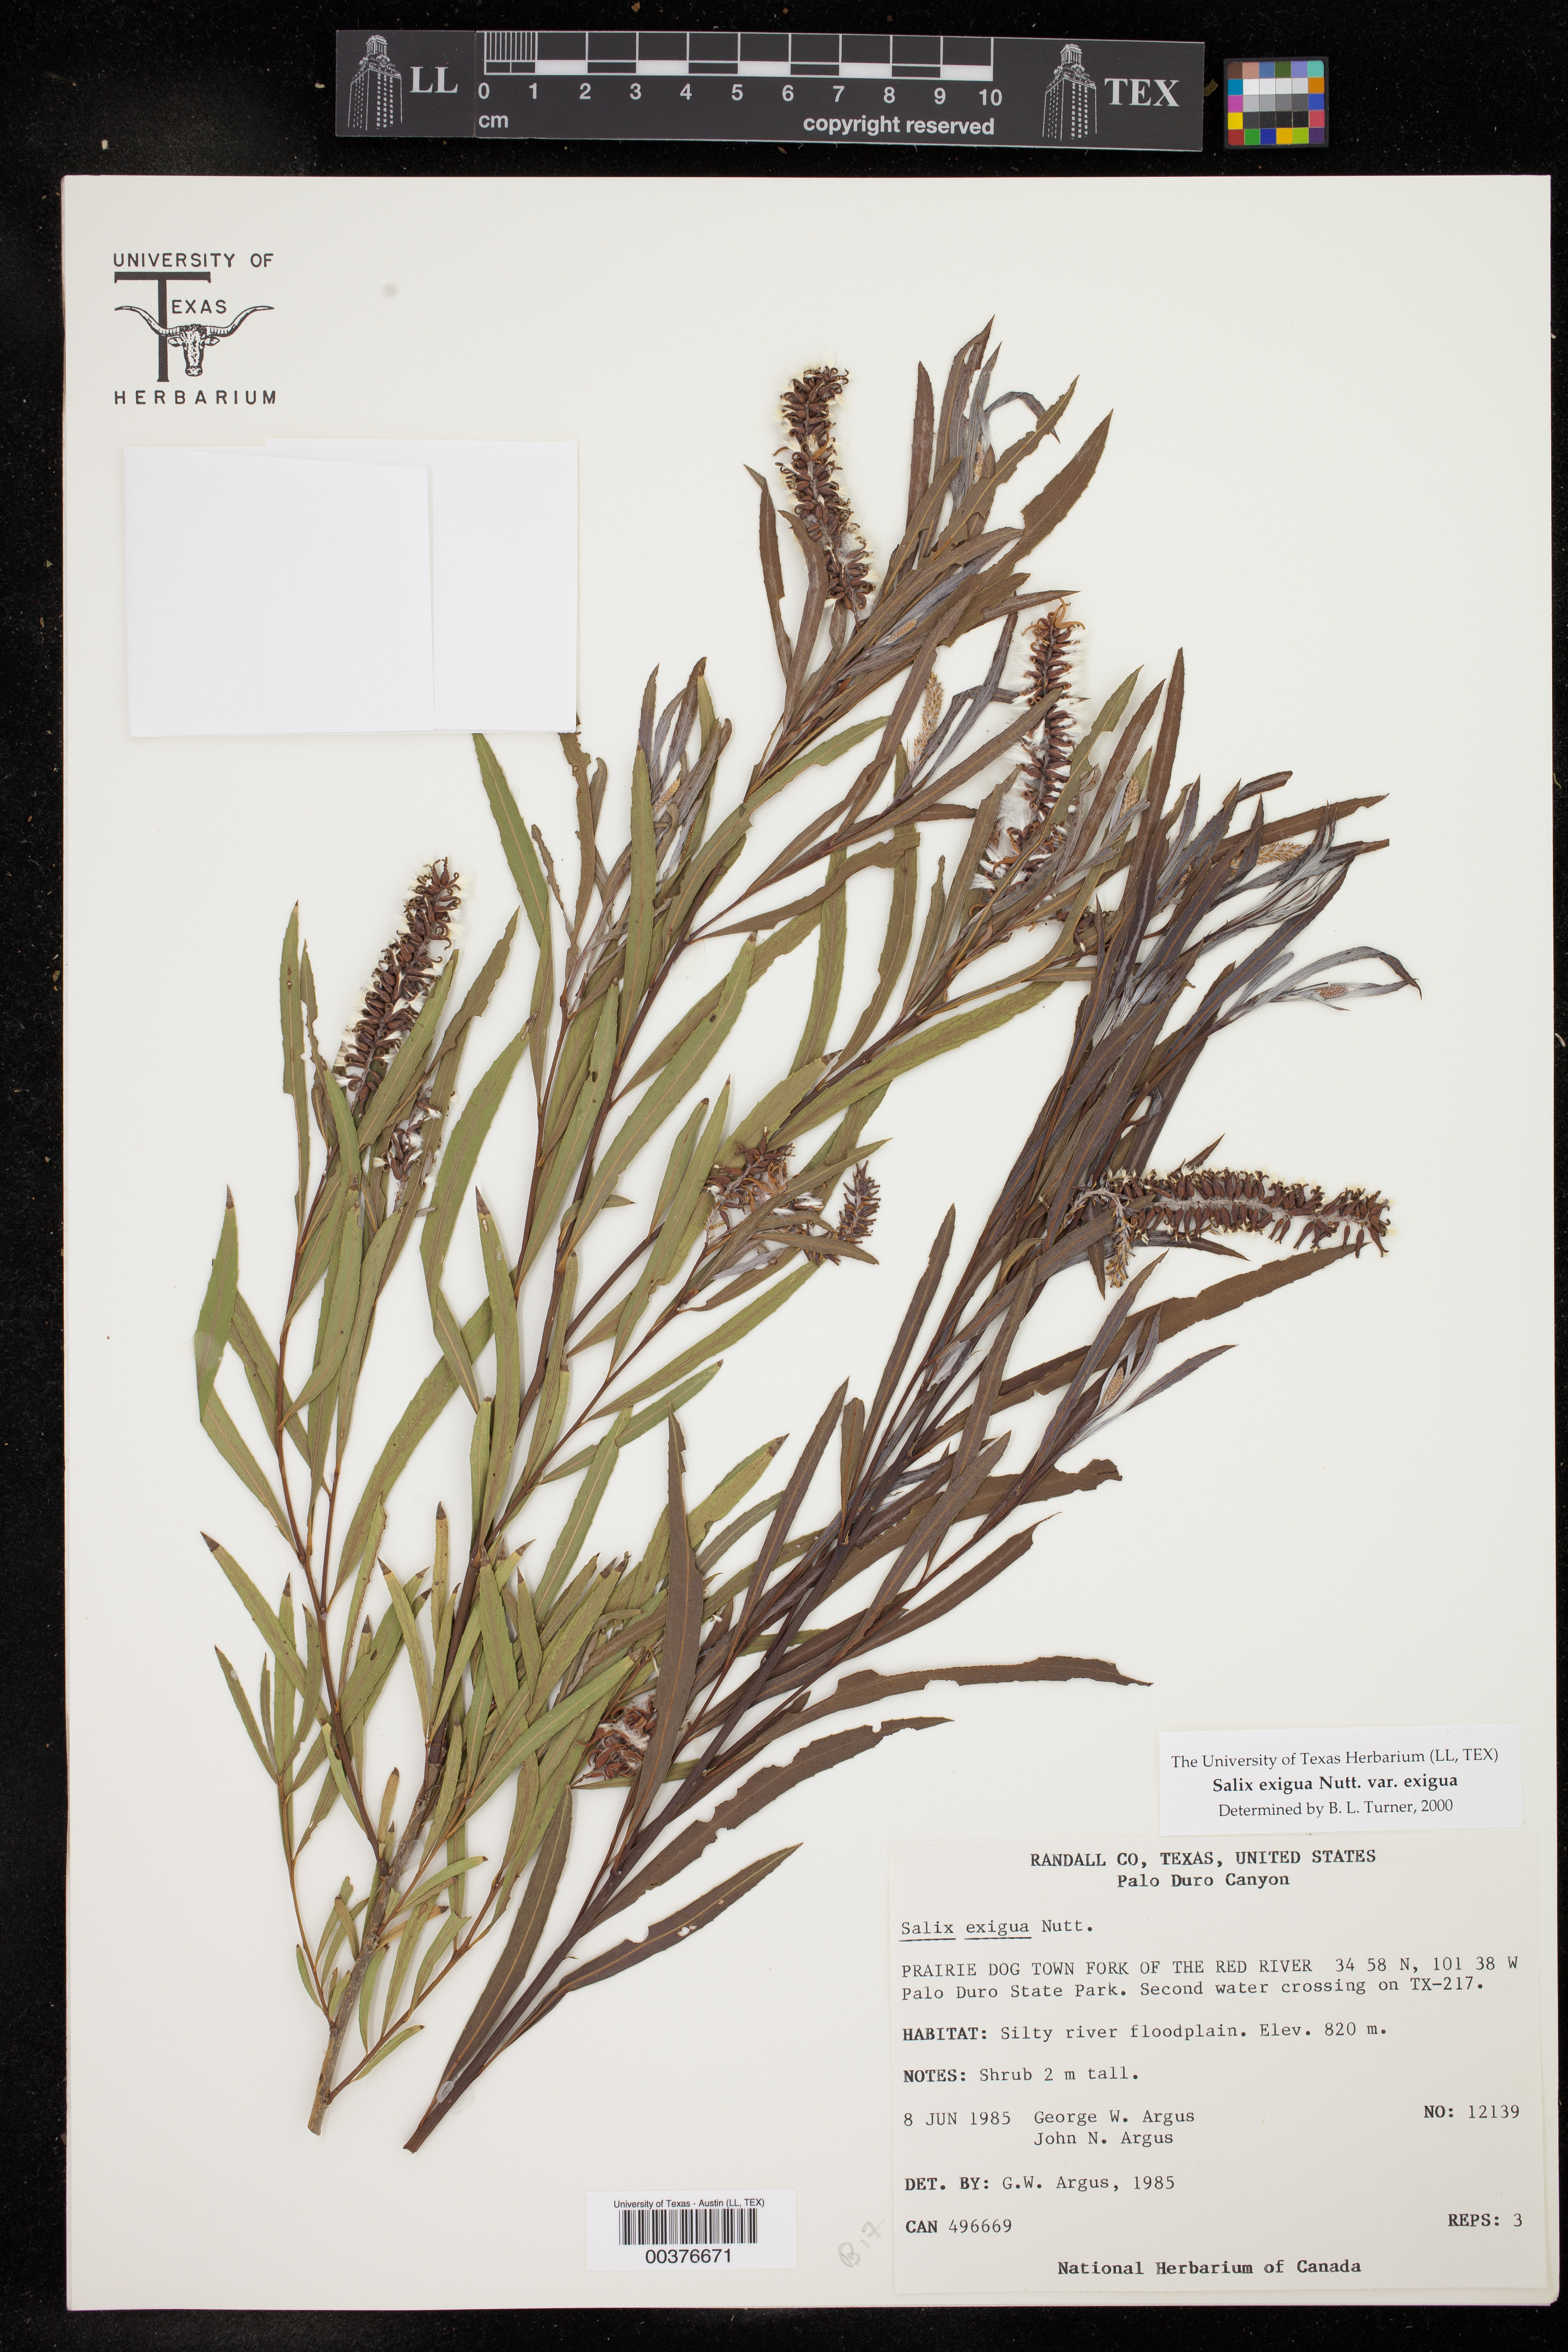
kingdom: Plantae
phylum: Tracheophyta
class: Magnoliopsida
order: Malpighiales
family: Salicaceae
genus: Salix
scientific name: Salix exigua
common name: Coyote willow
